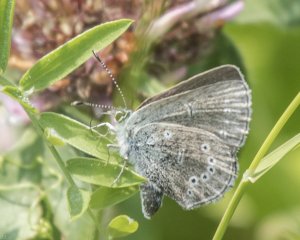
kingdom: Animalia
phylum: Arthropoda
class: Insecta
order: Lepidoptera
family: Lycaenidae
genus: Glaucopsyche
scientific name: Glaucopsyche lygdamus
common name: Silvery Blue
